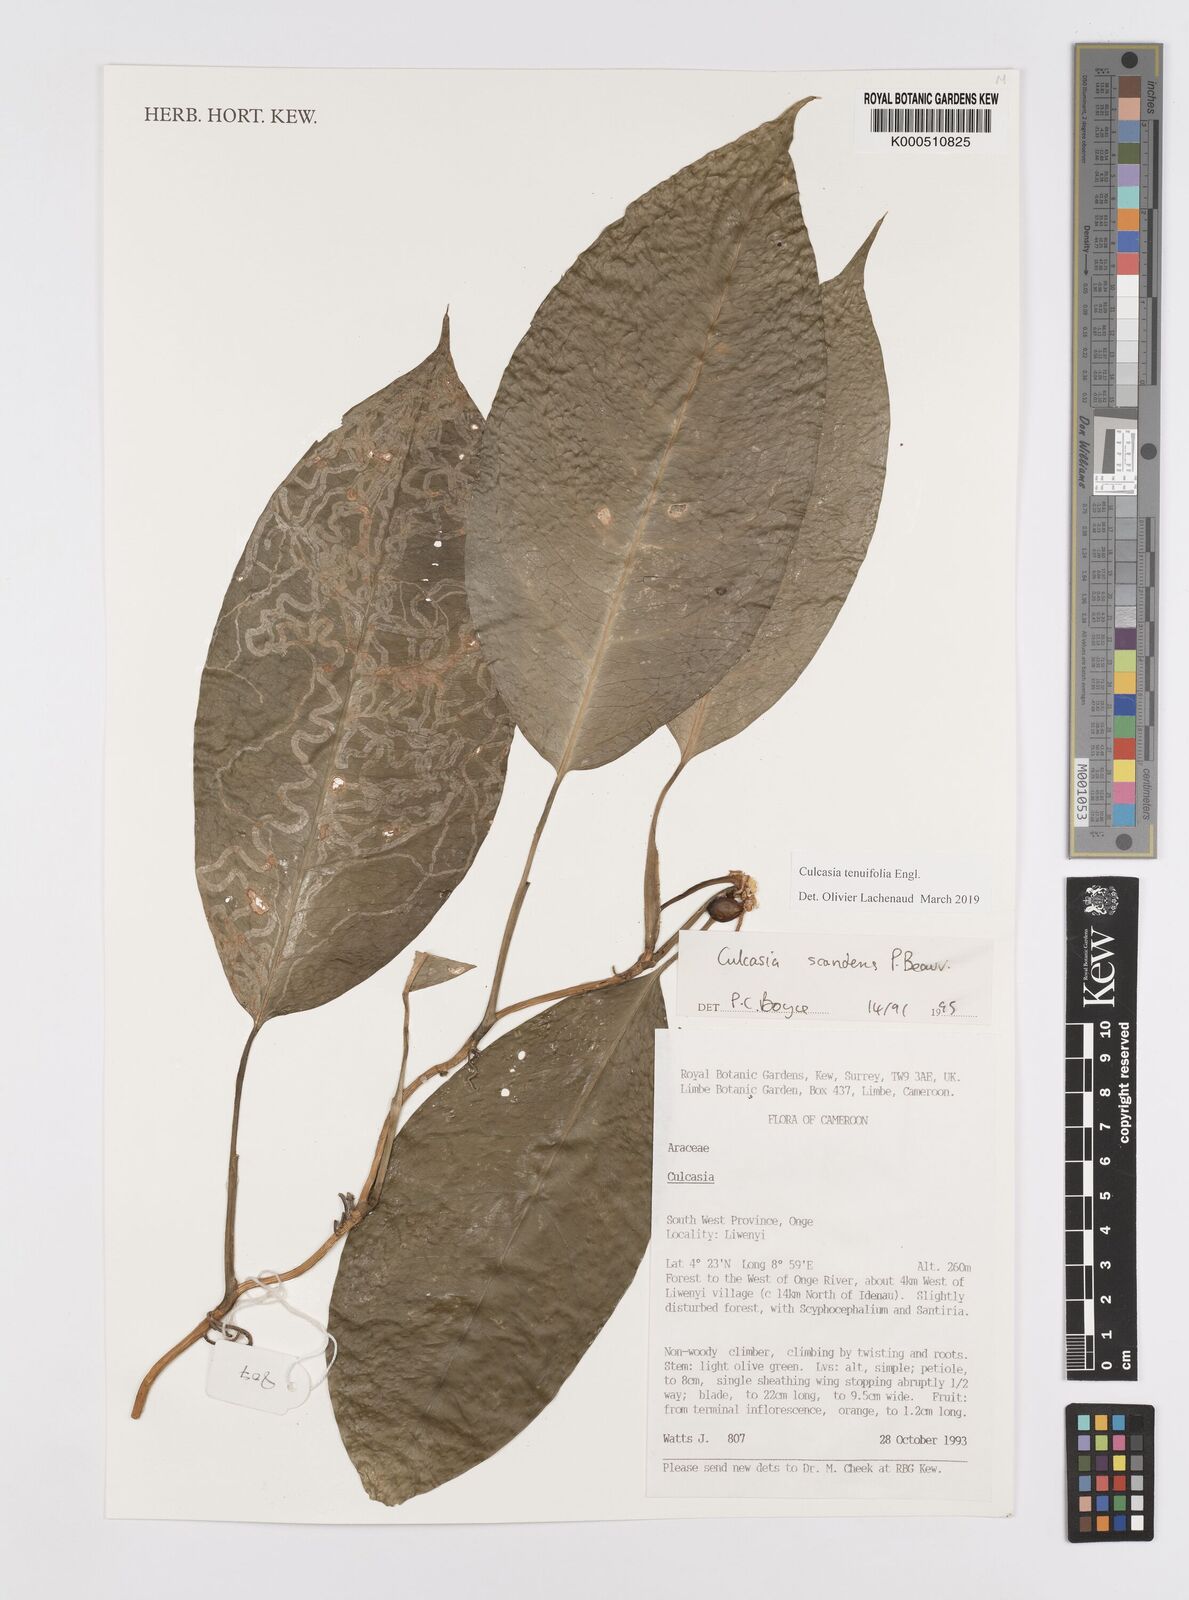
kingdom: Plantae
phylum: Tracheophyta
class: Liliopsida
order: Alismatales
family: Araceae
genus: Culcasia
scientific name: Culcasia tenuifolia
